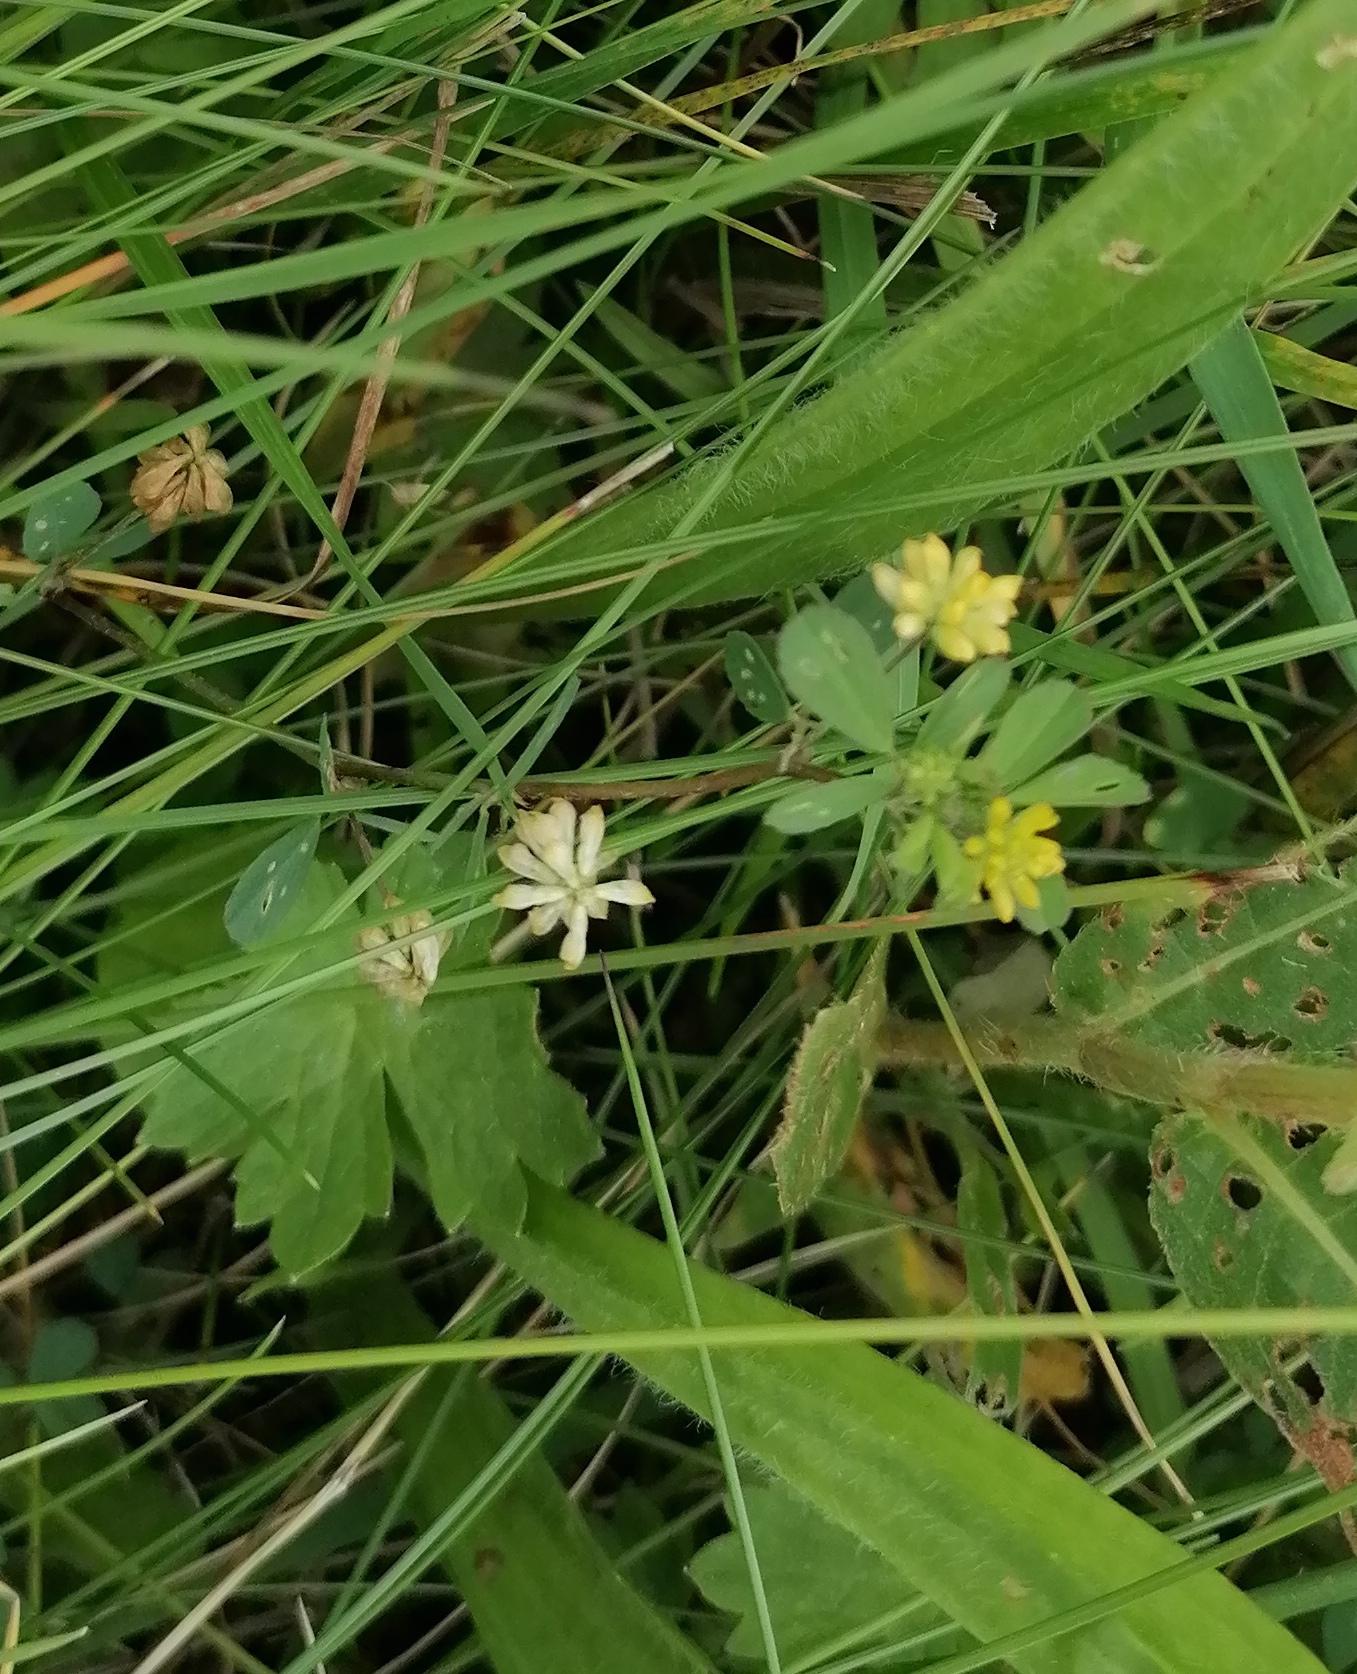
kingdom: Plantae
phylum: Tracheophyta
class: Magnoliopsida
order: Fabales
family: Fabaceae
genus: Trifolium
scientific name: Trifolium dubium
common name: Fin kløver
